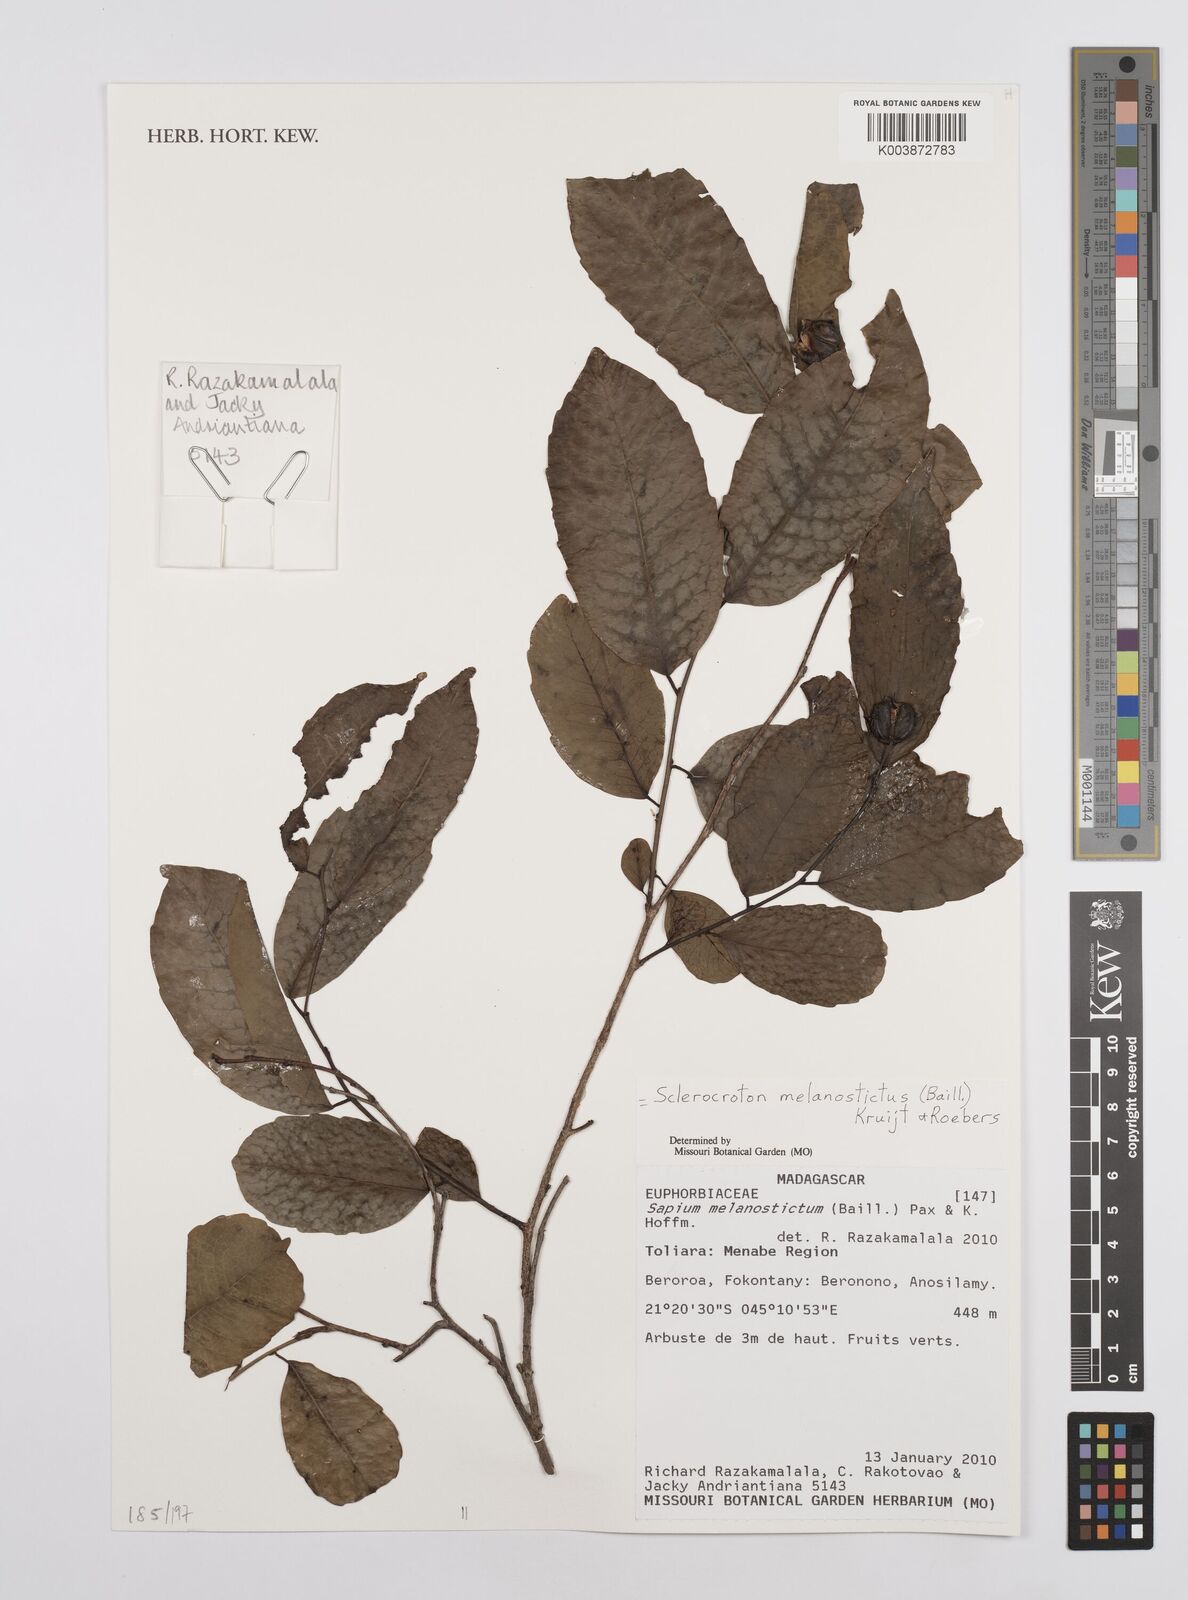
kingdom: Plantae
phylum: Tracheophyta
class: Magnoliopsida
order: Malpighiales
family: Euphorbiaceae
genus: Sclerocroton
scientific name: Sclerocroton melanostictus
